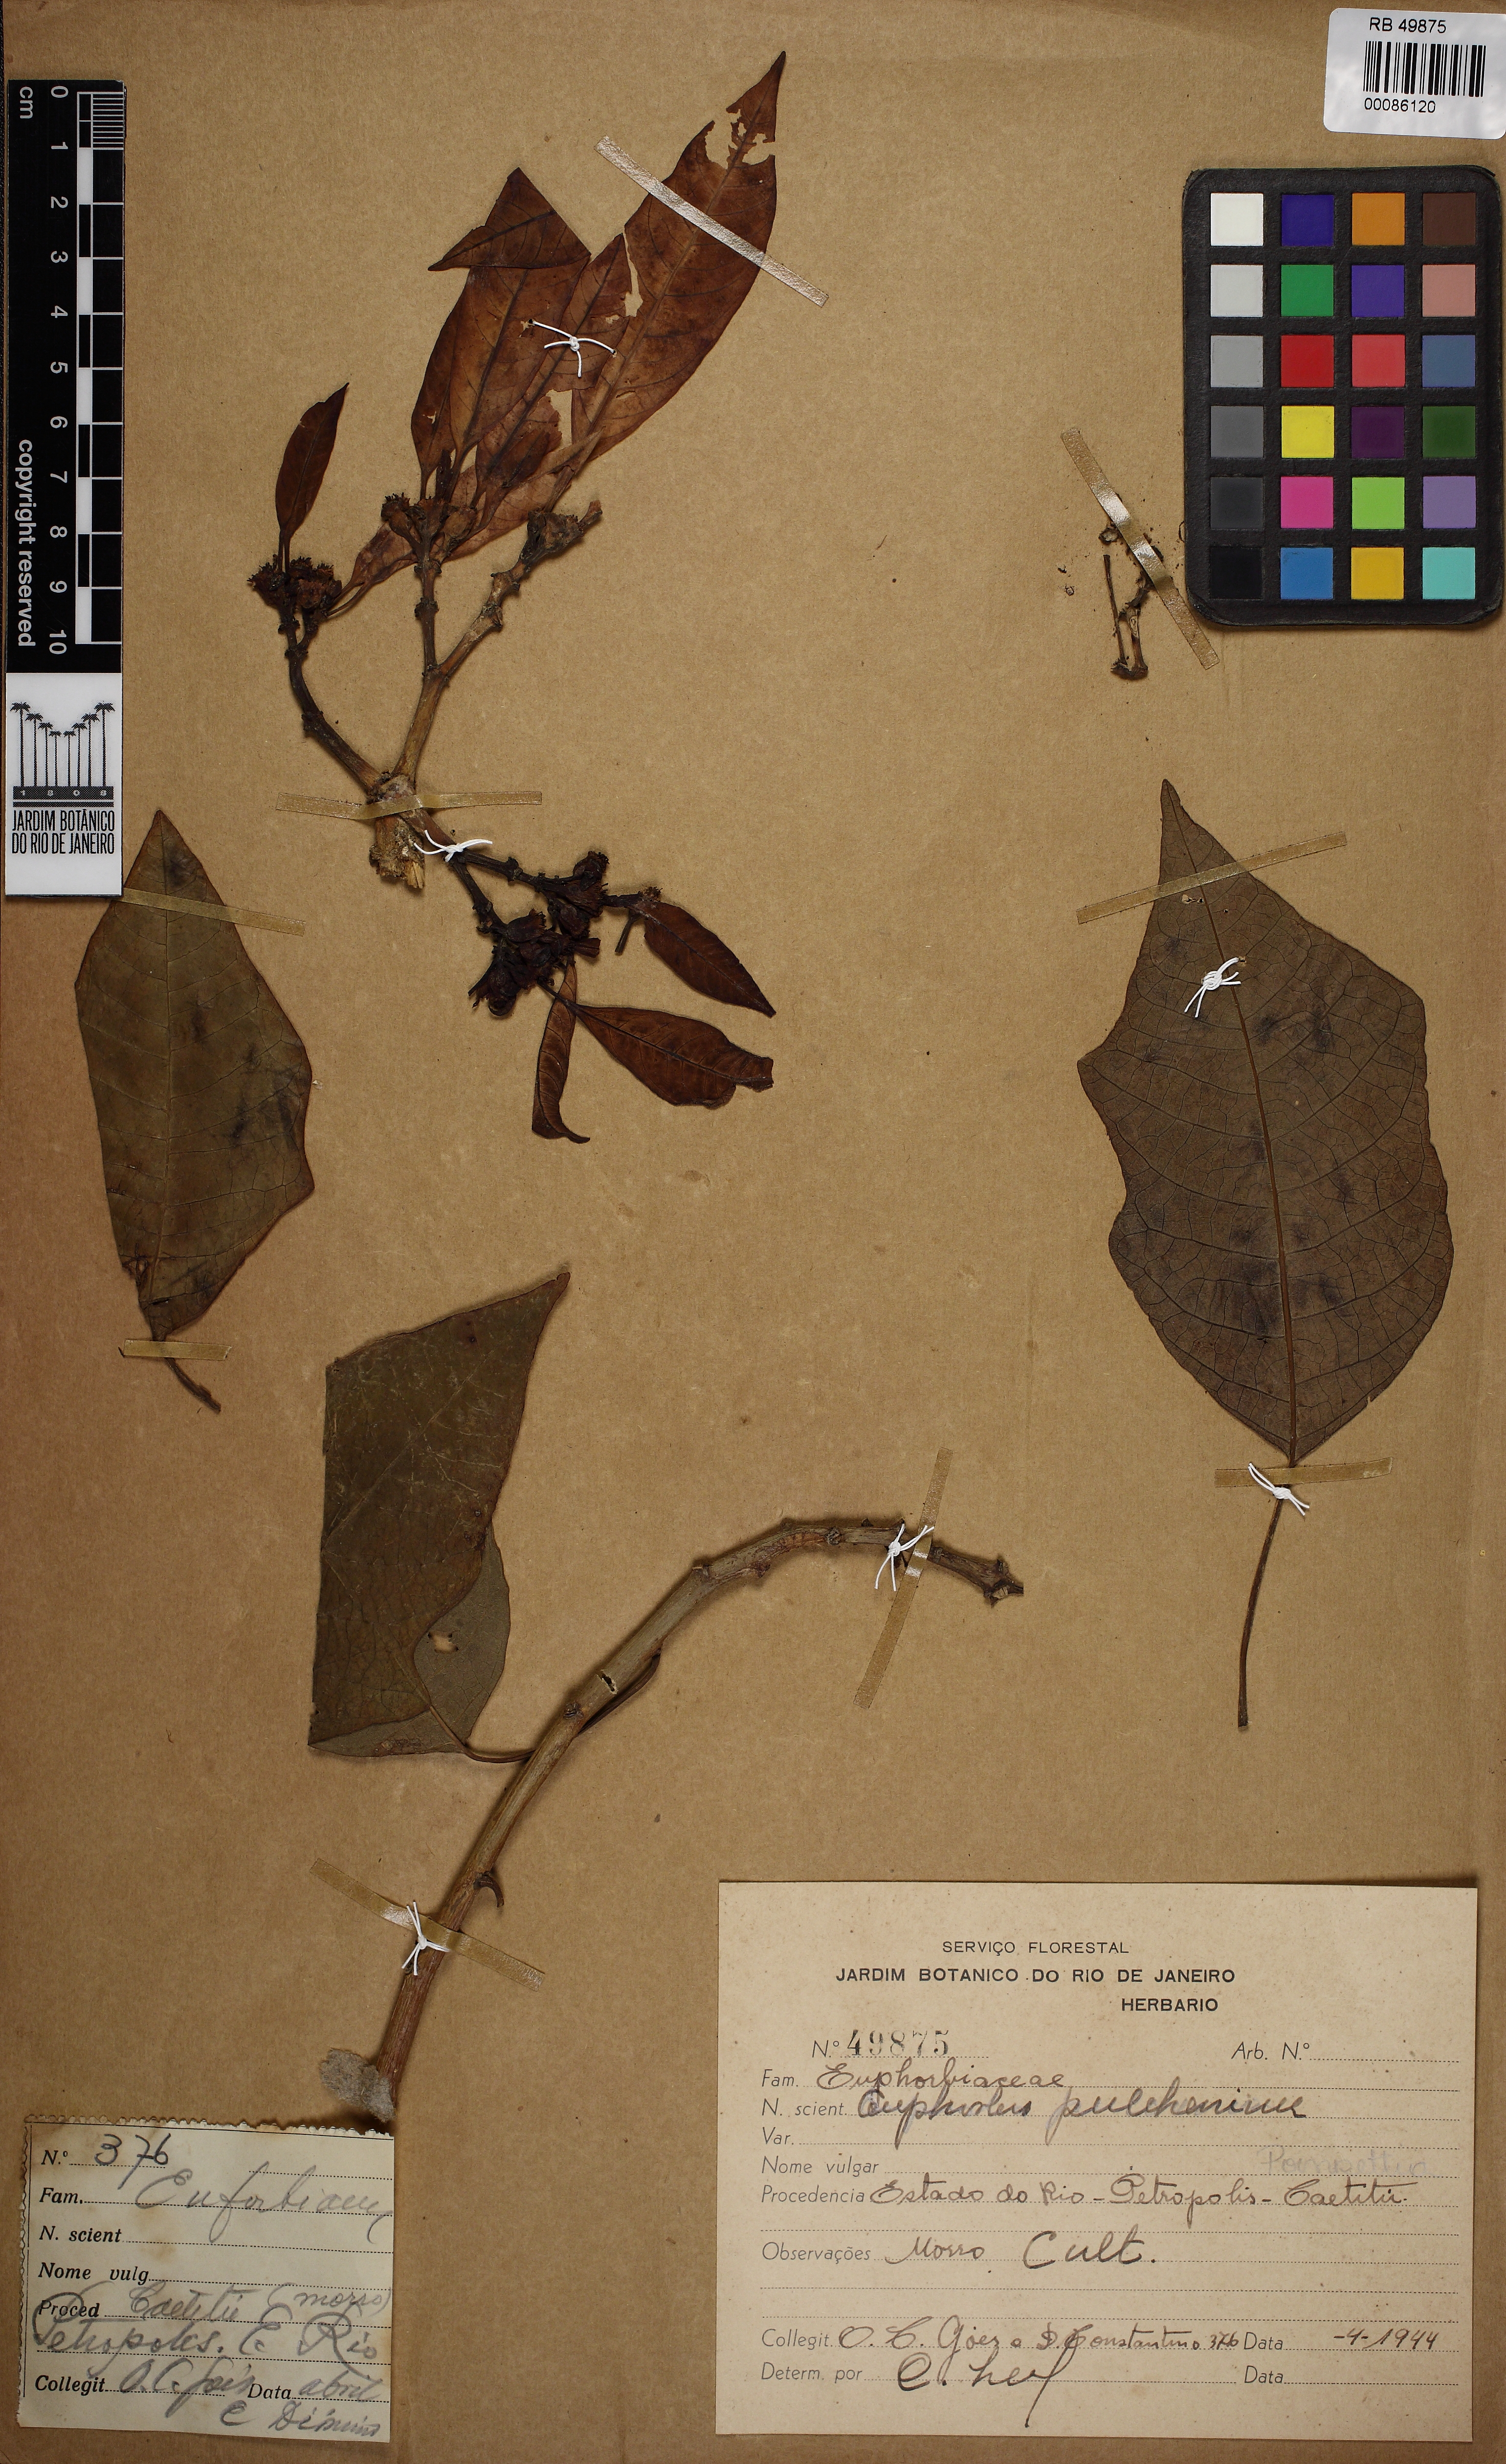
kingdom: Plantae
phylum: Tracheophyta
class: Magnoliopsida
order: Malpighiales
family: Euphorbiaceae
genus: Euphorbia
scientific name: Euphorbia pulcherrima
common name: Christmas-flower
